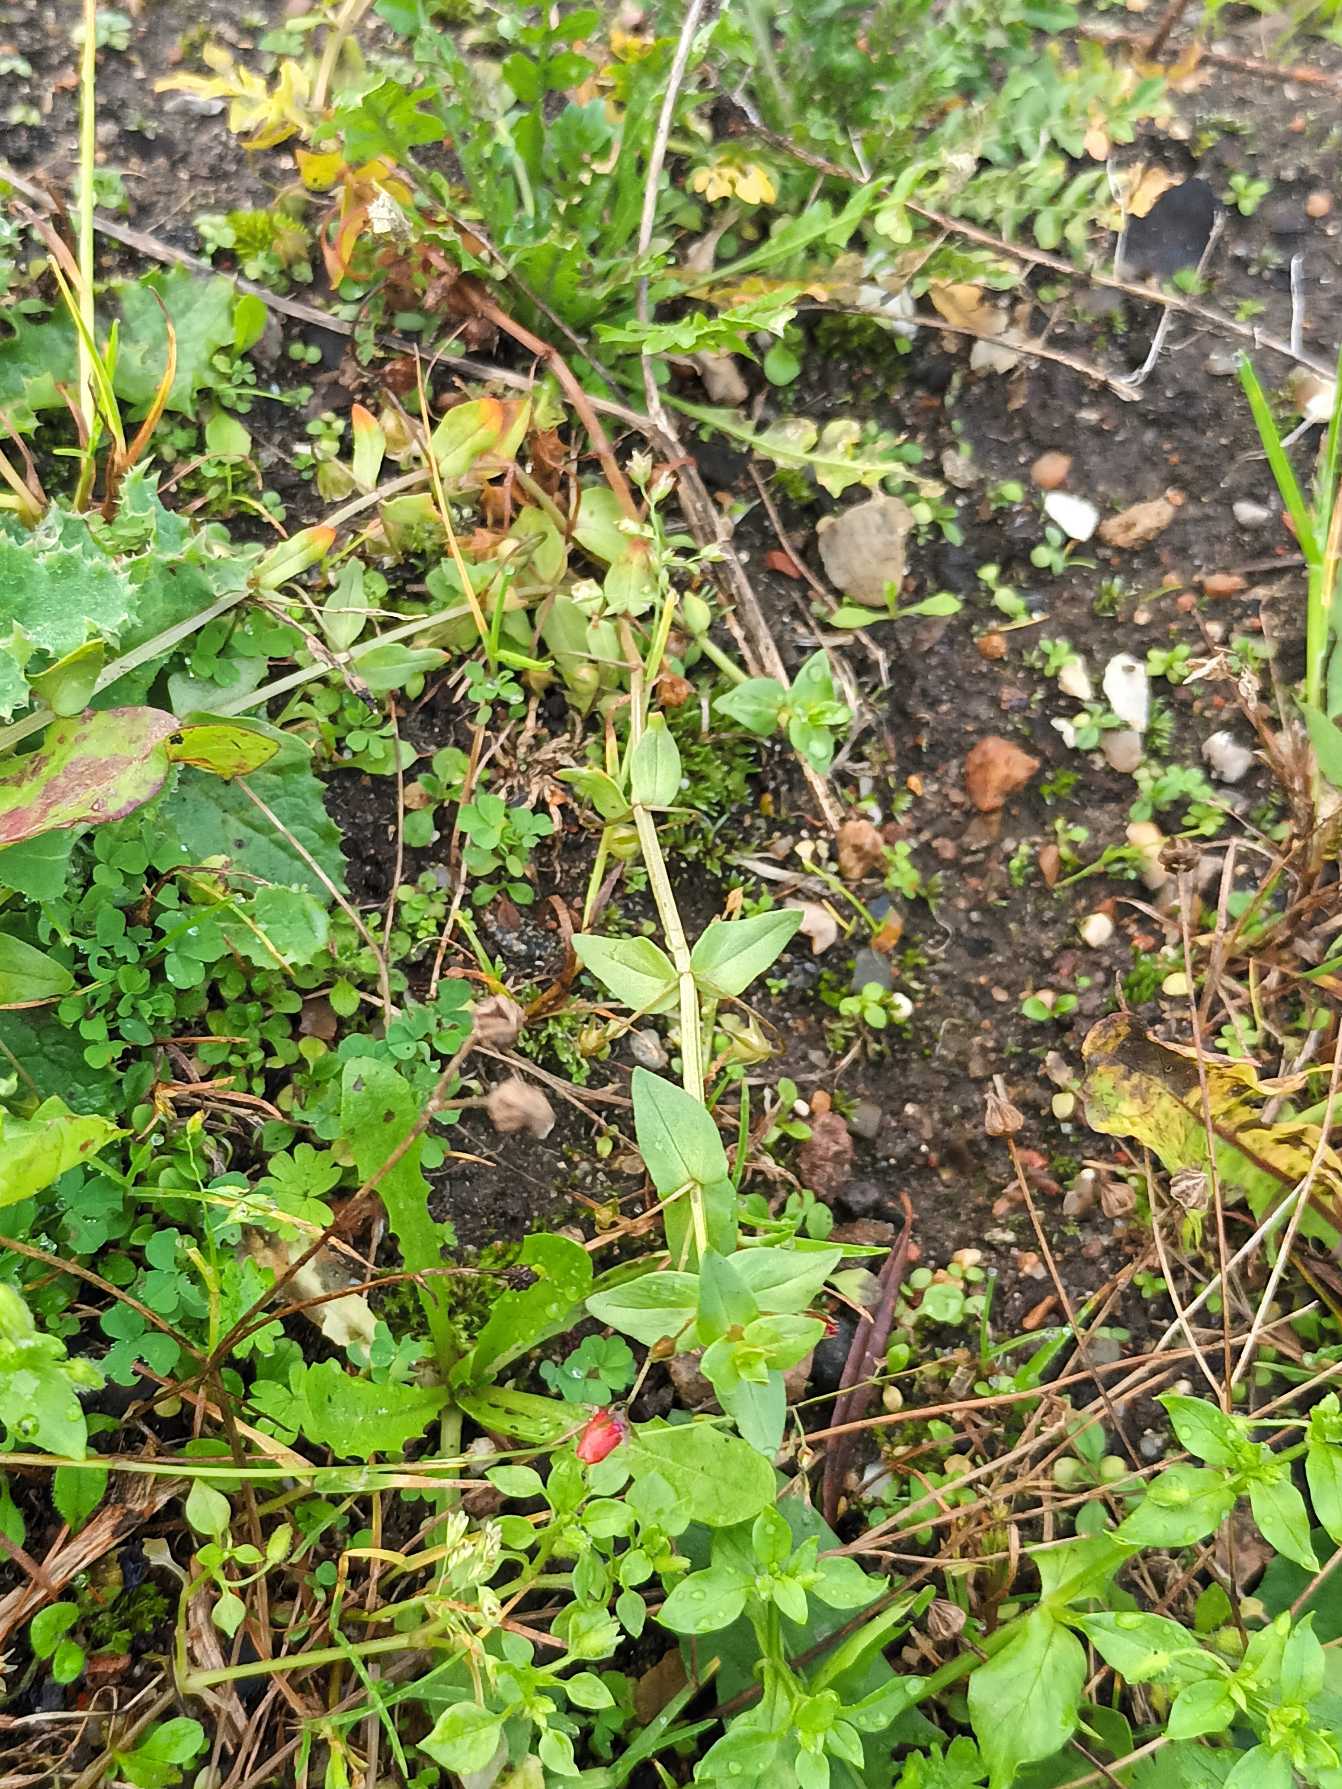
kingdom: Plantae
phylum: Tracheophyta
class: Magnoliopsida
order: Ericales
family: Primulaceae
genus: Lysimachia
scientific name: Lysimachia arvensis
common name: Rød arve
